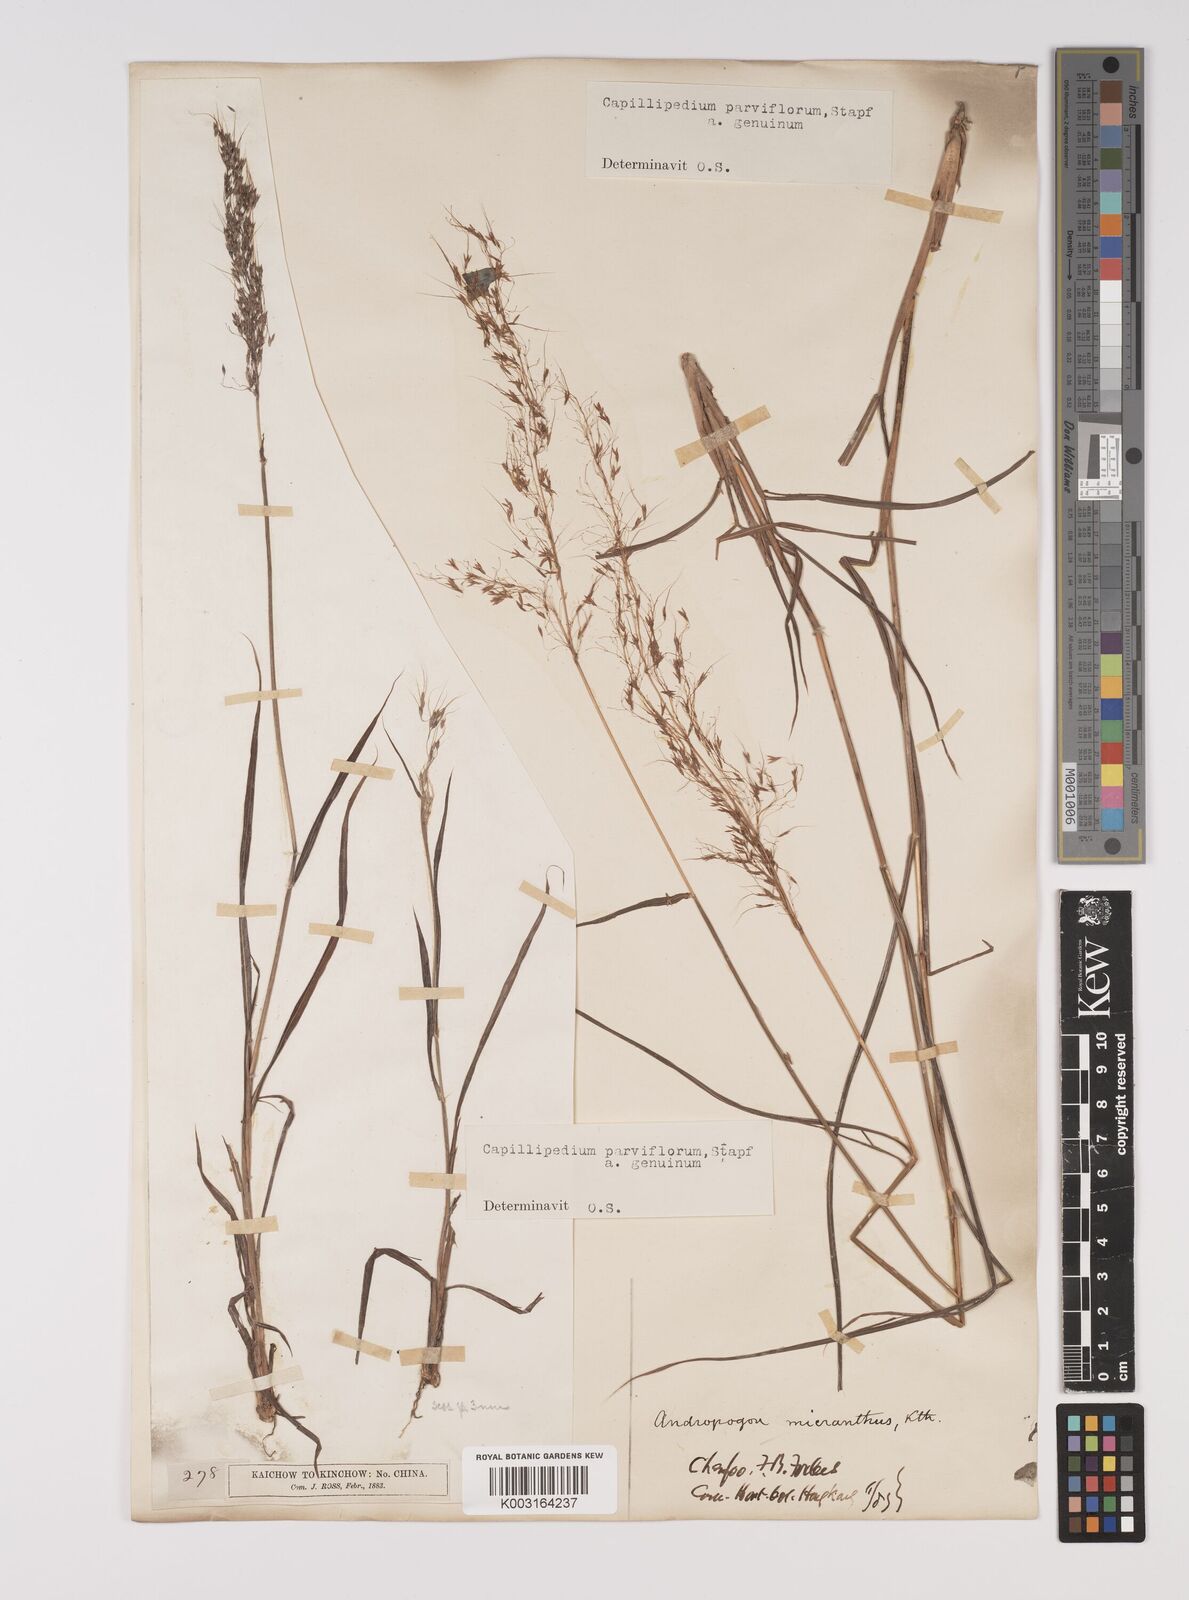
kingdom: Plantae
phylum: Tracheophyta
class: Liliopsida
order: Poales
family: Poaceae
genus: Capillipedium
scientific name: Capillipedium parviflorum
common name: Golden-beard
